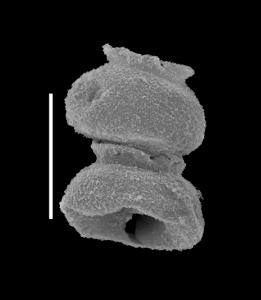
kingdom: Animalia
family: Desmochitinidae
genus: Calpichitina
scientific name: Calpichitina
